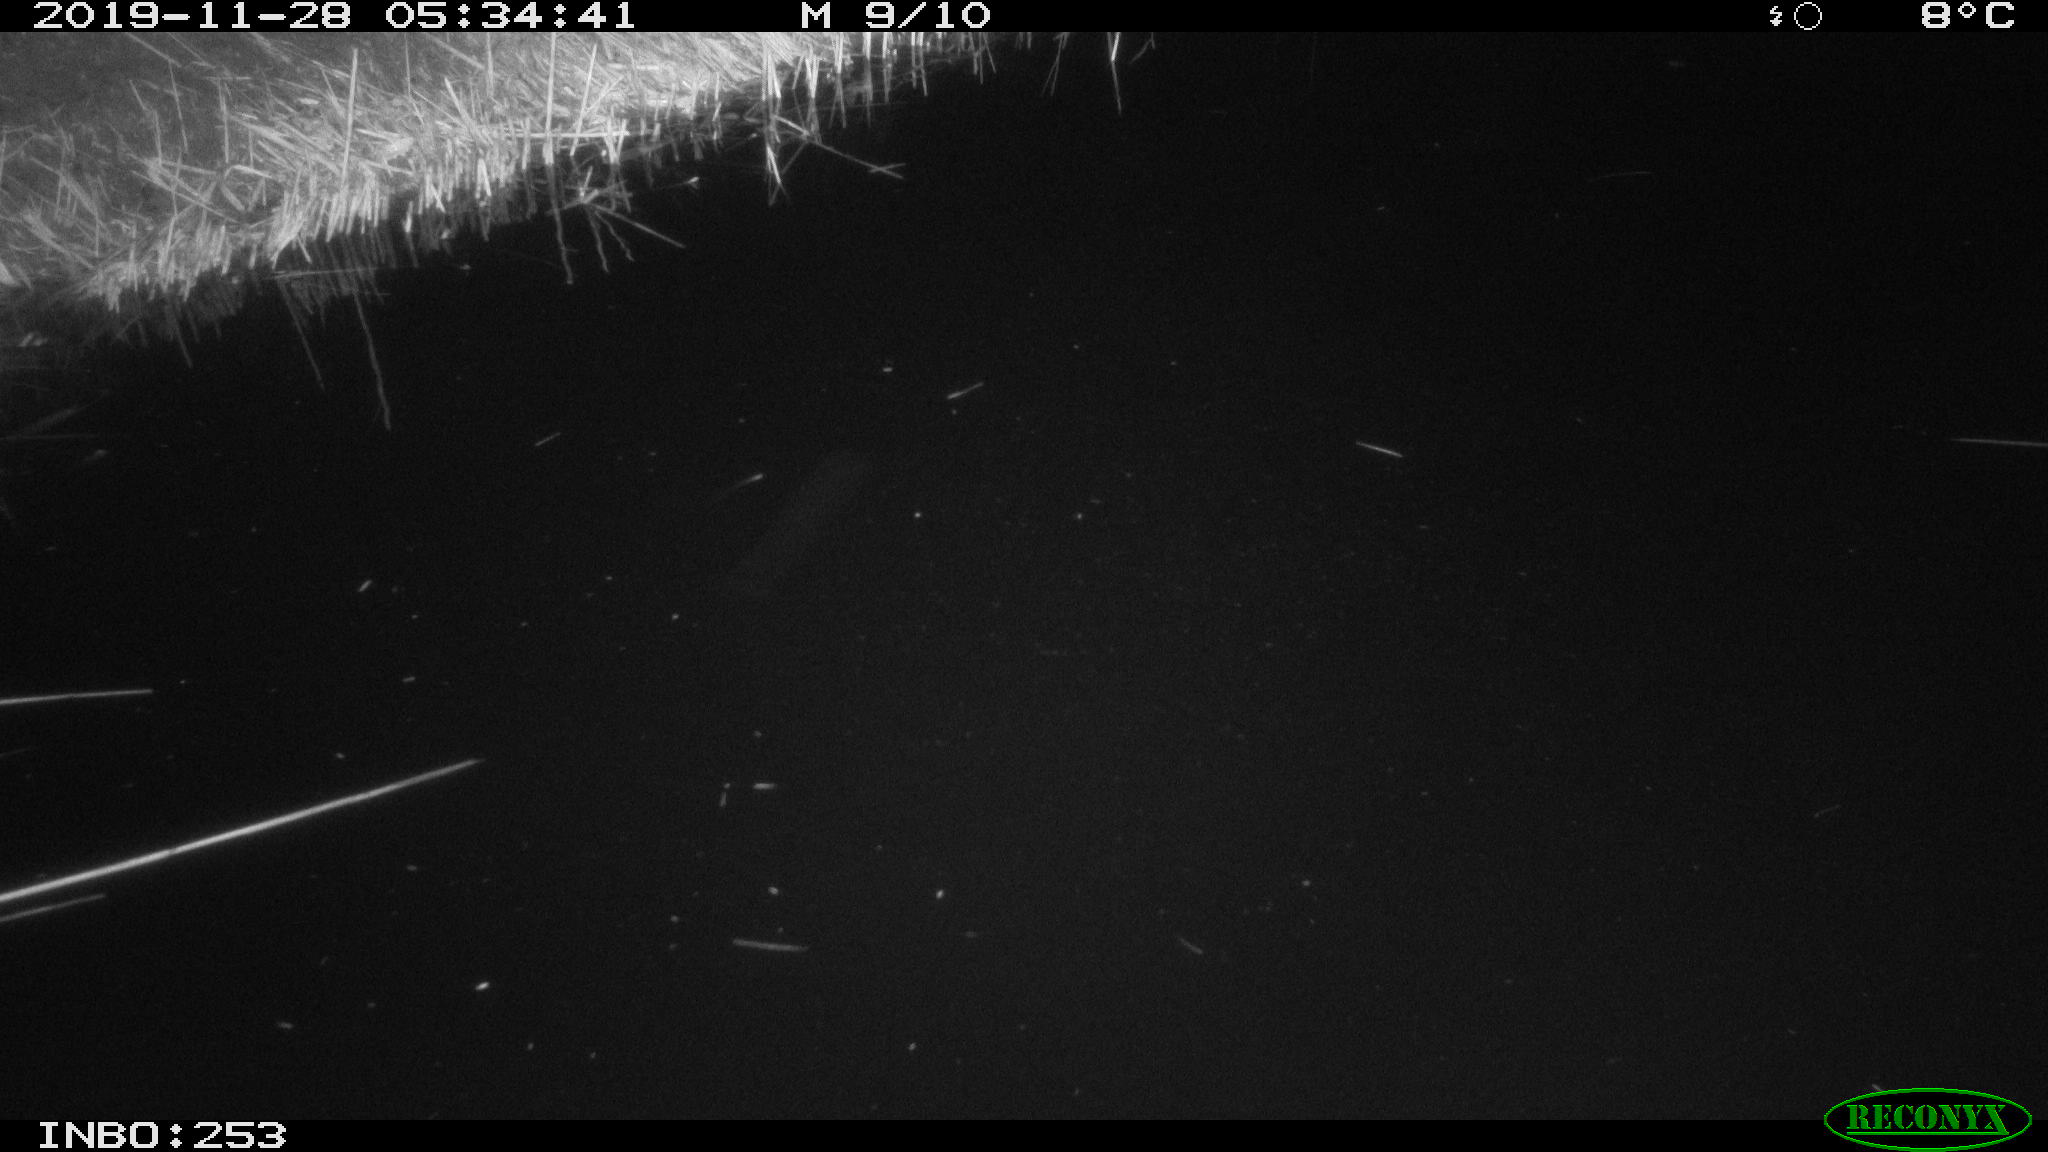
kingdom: Animalia
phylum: Chordata
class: Mammalia
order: Rodentia
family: Muridae
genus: Rattus
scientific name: Rattus norvegicus
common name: Brown rat
